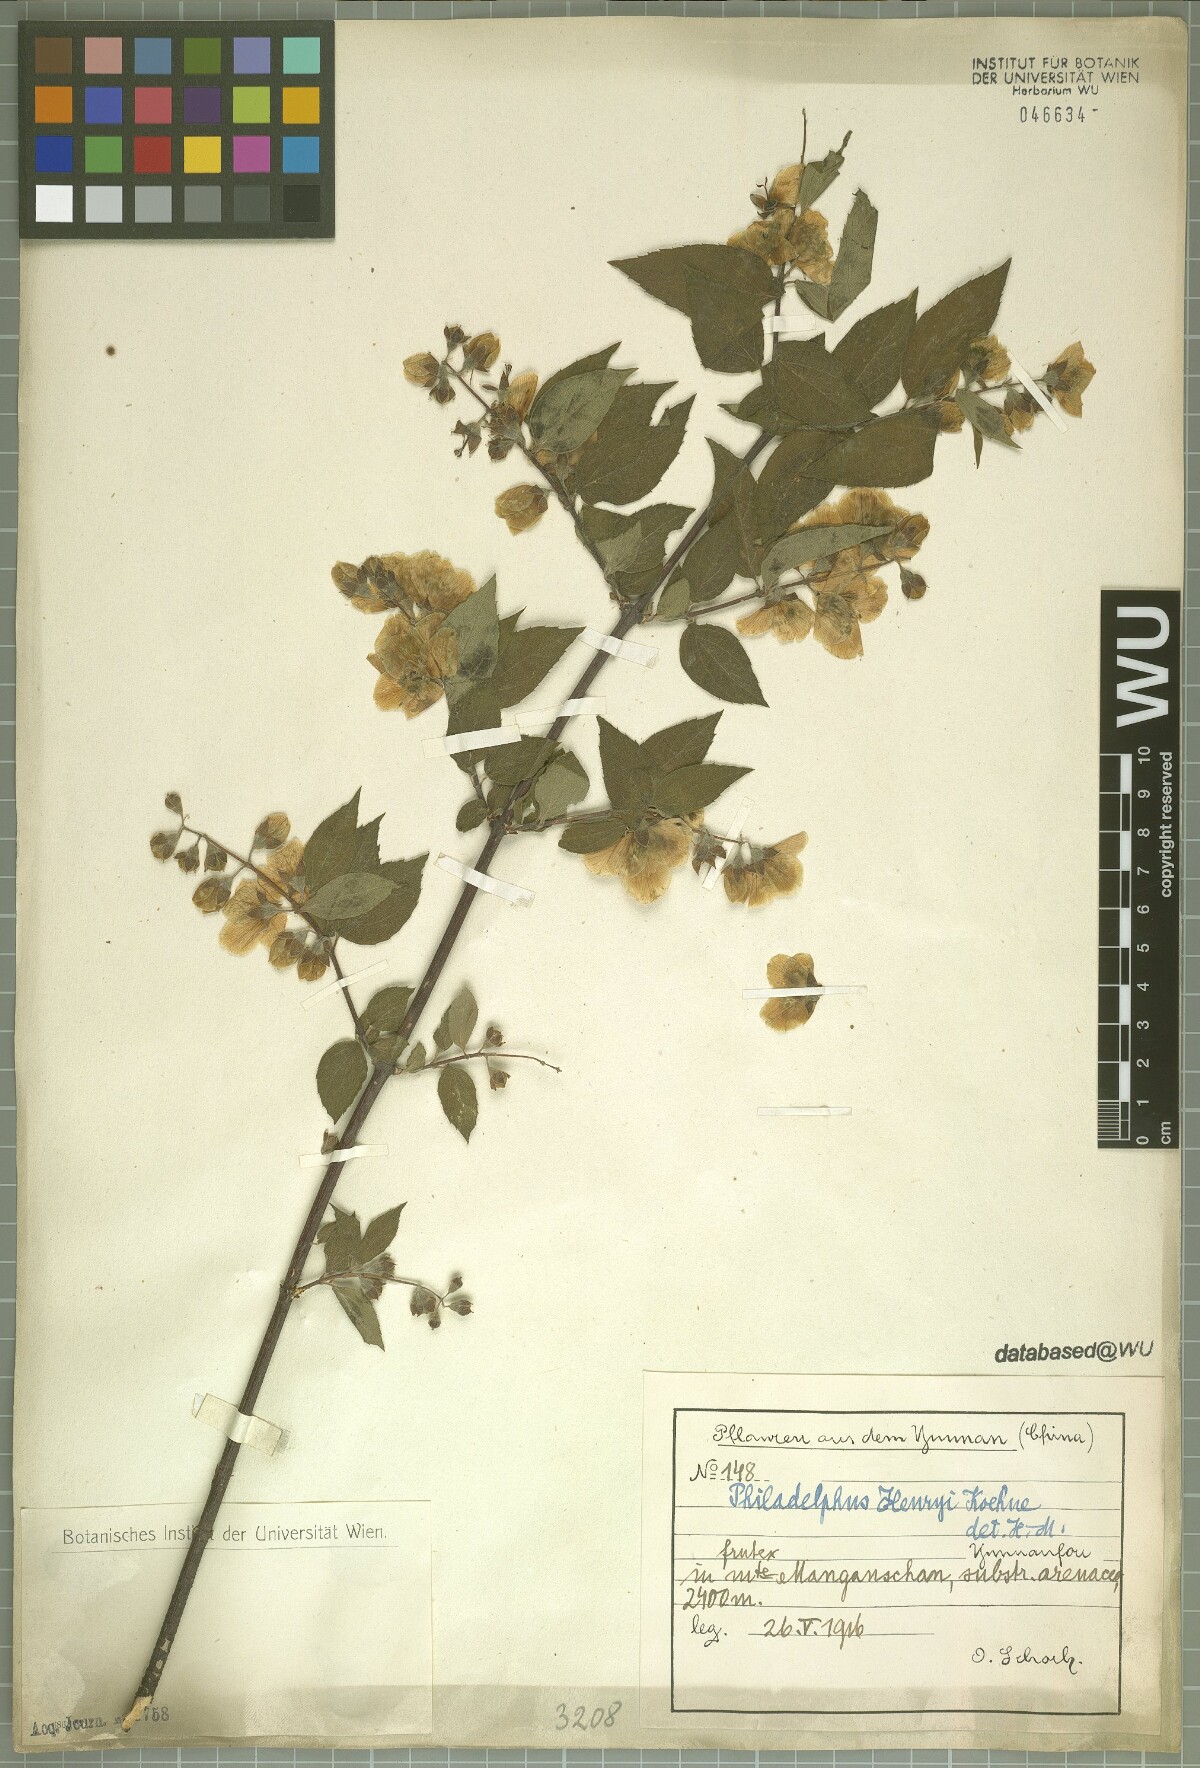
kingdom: Plantae
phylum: Tracheophyta
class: Magnoliopsida
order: Cornales
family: Hydrangeaceae
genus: Philadelphus
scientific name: Philadelphus henryi
